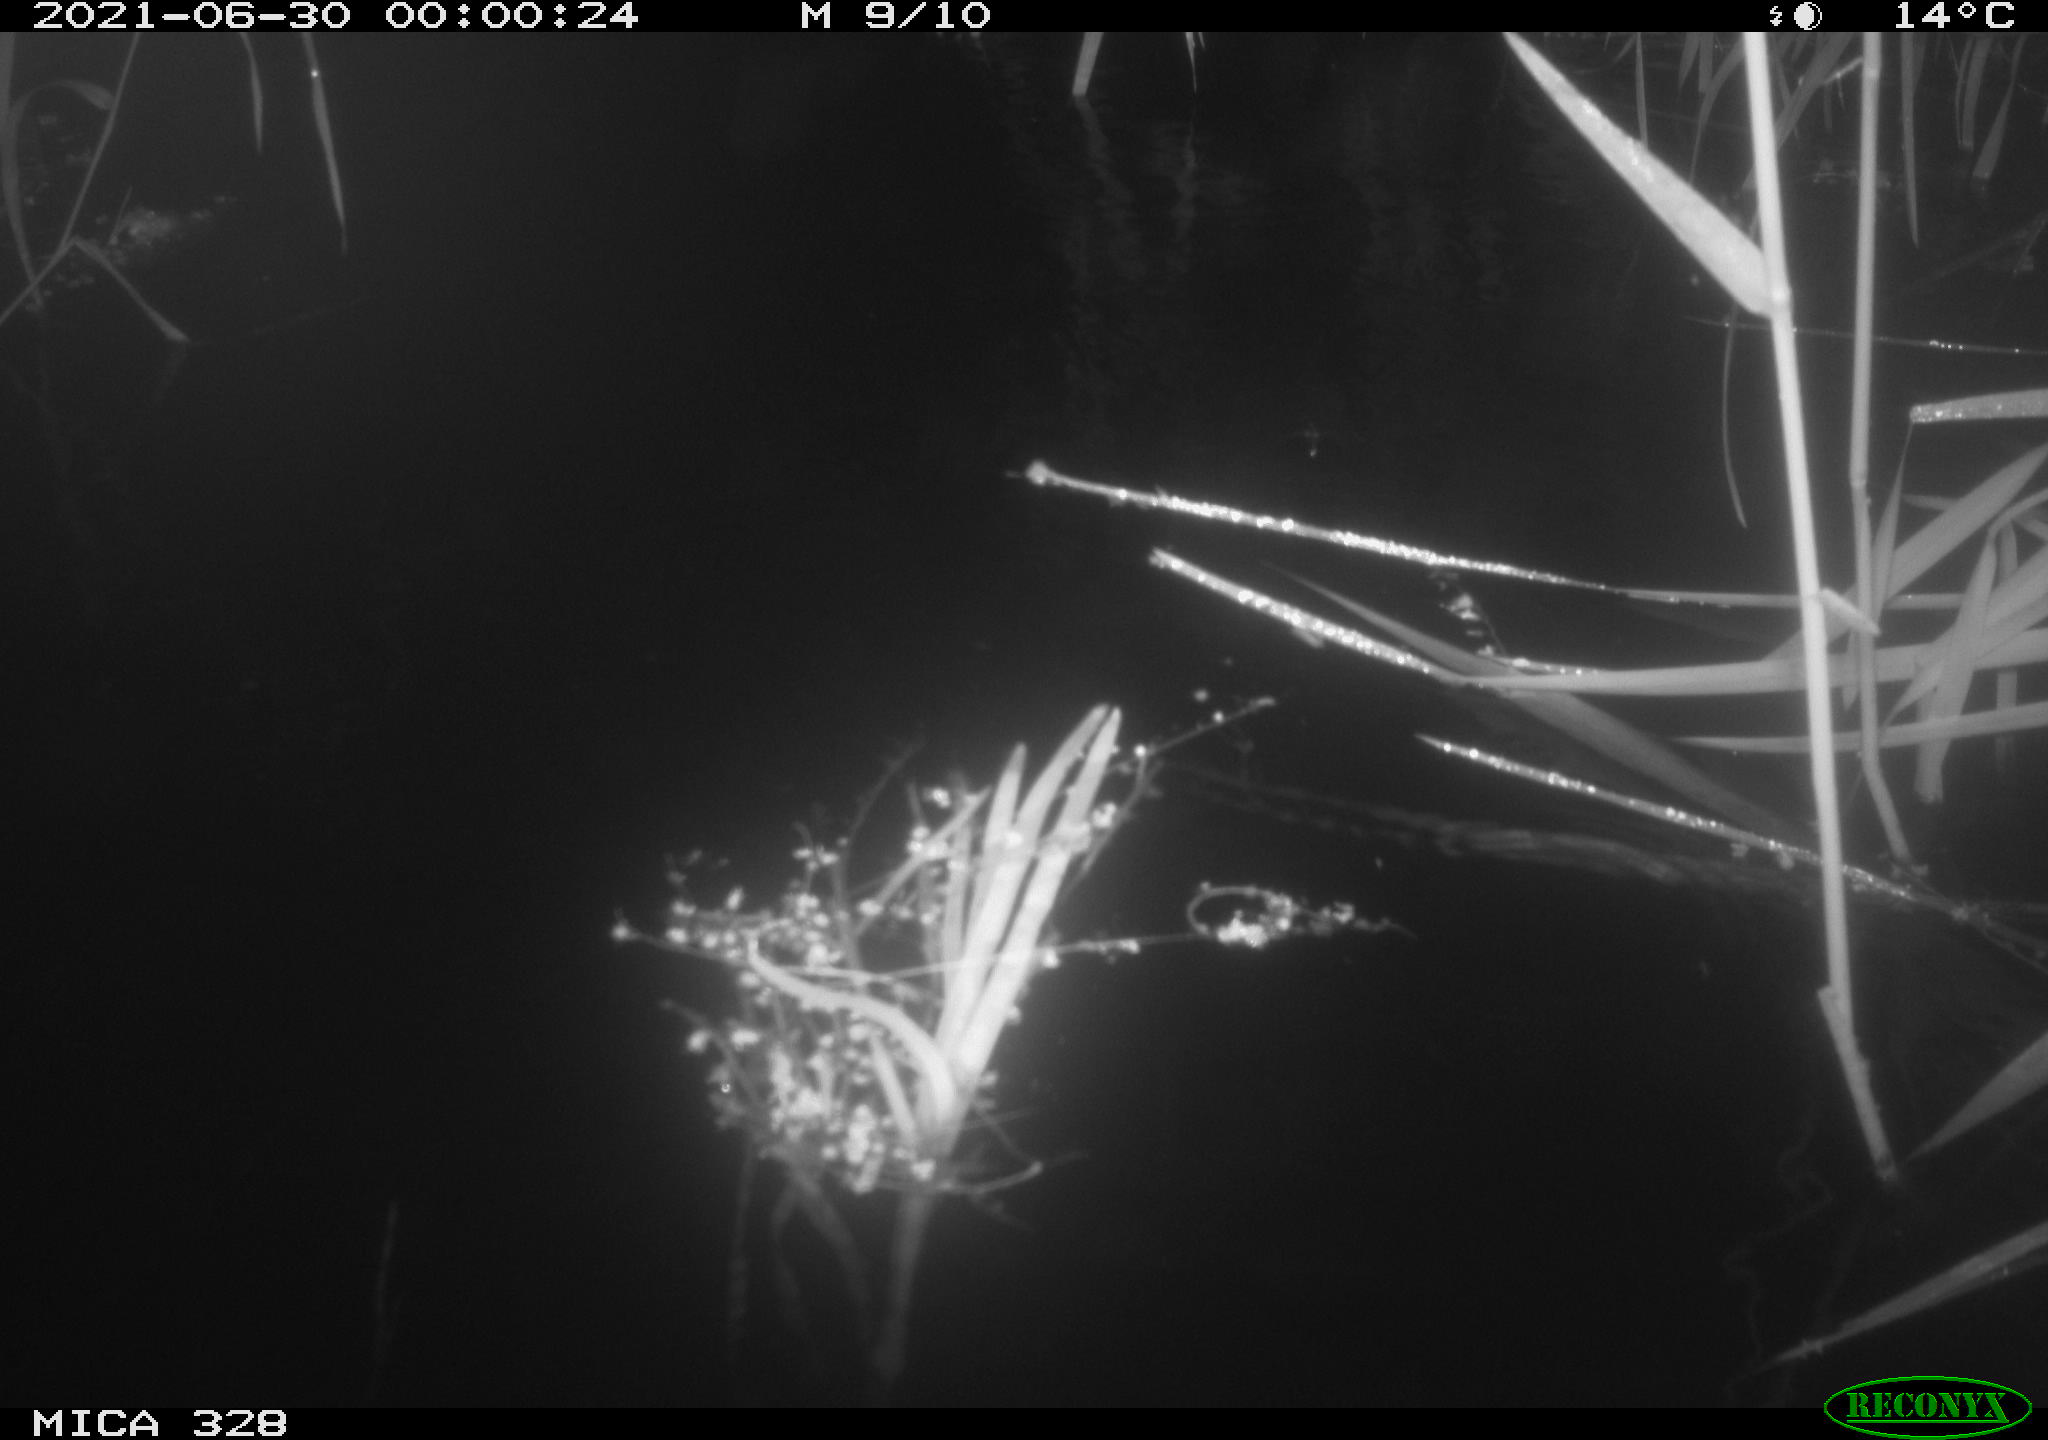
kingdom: Animalia
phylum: Chordata
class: Mammalia
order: Rodentia
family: Cricetidae
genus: Ondatra
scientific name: Ondatra zibethicus
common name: Muskrat
